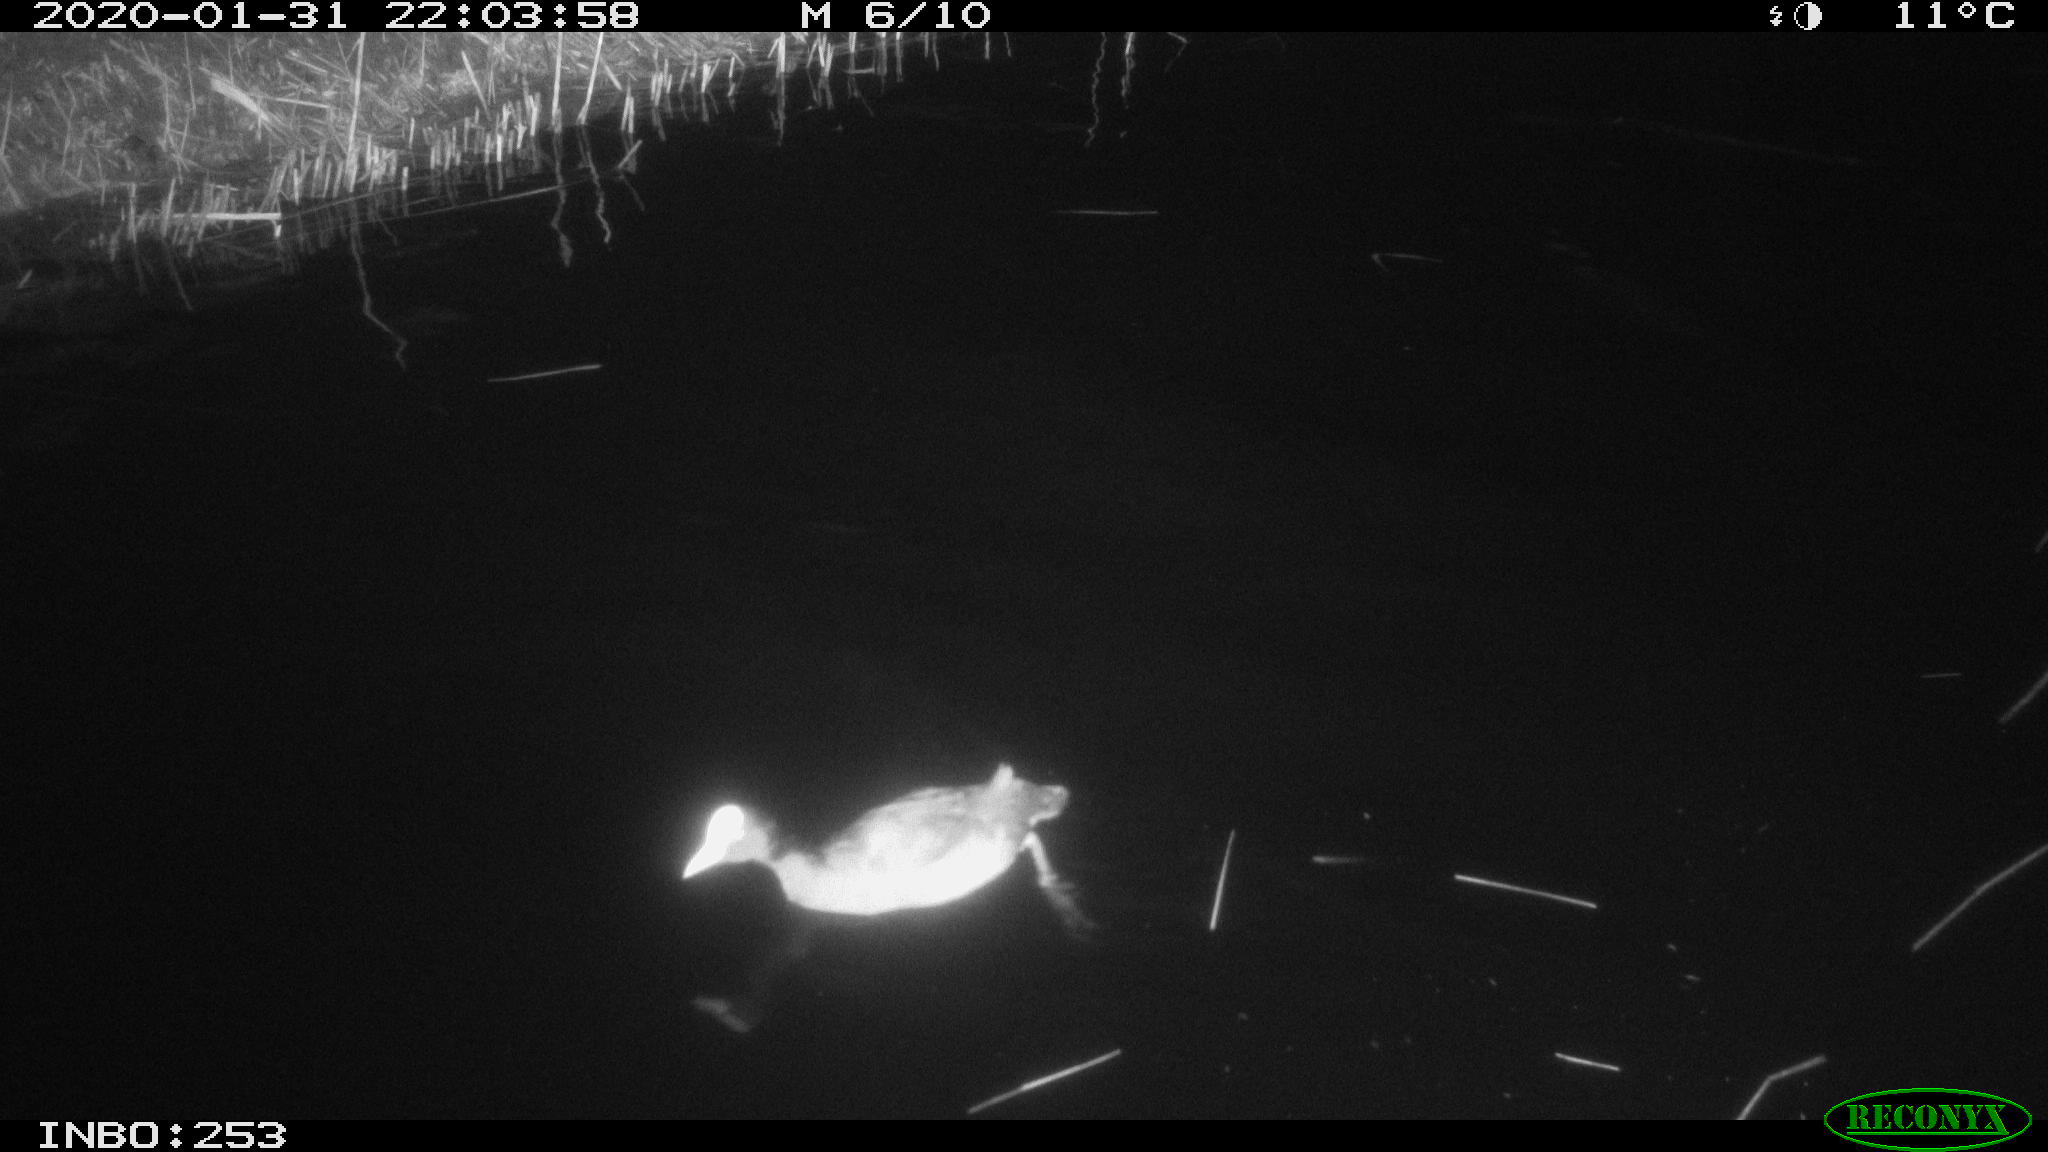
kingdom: Animalia
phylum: Chordata
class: Aves
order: Gruiformes
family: Rallidae
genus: Fulica
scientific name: Fulica atra
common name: Eurasian coot
